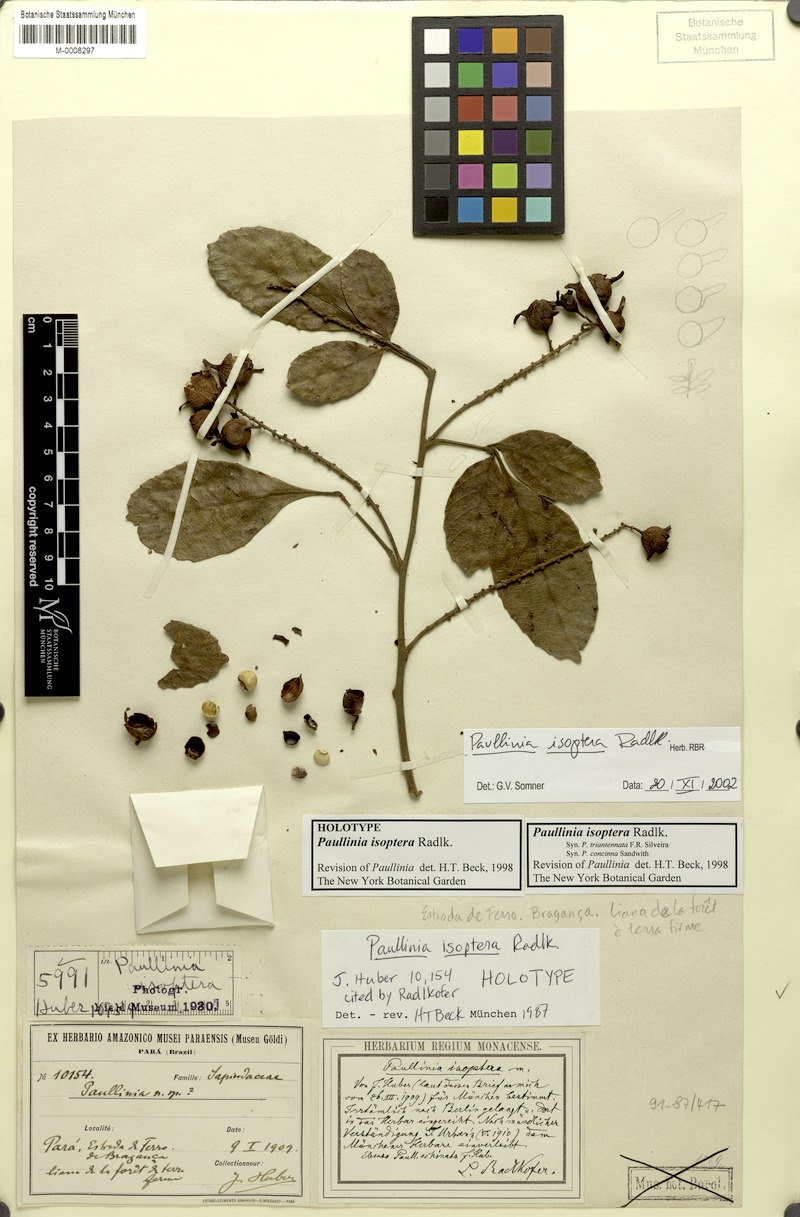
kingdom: Plantae
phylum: Tracheophyta
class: Magnoliopsida
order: Sapindales
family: Sapindaceae
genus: Paullinia
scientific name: Paullinia isoptera
